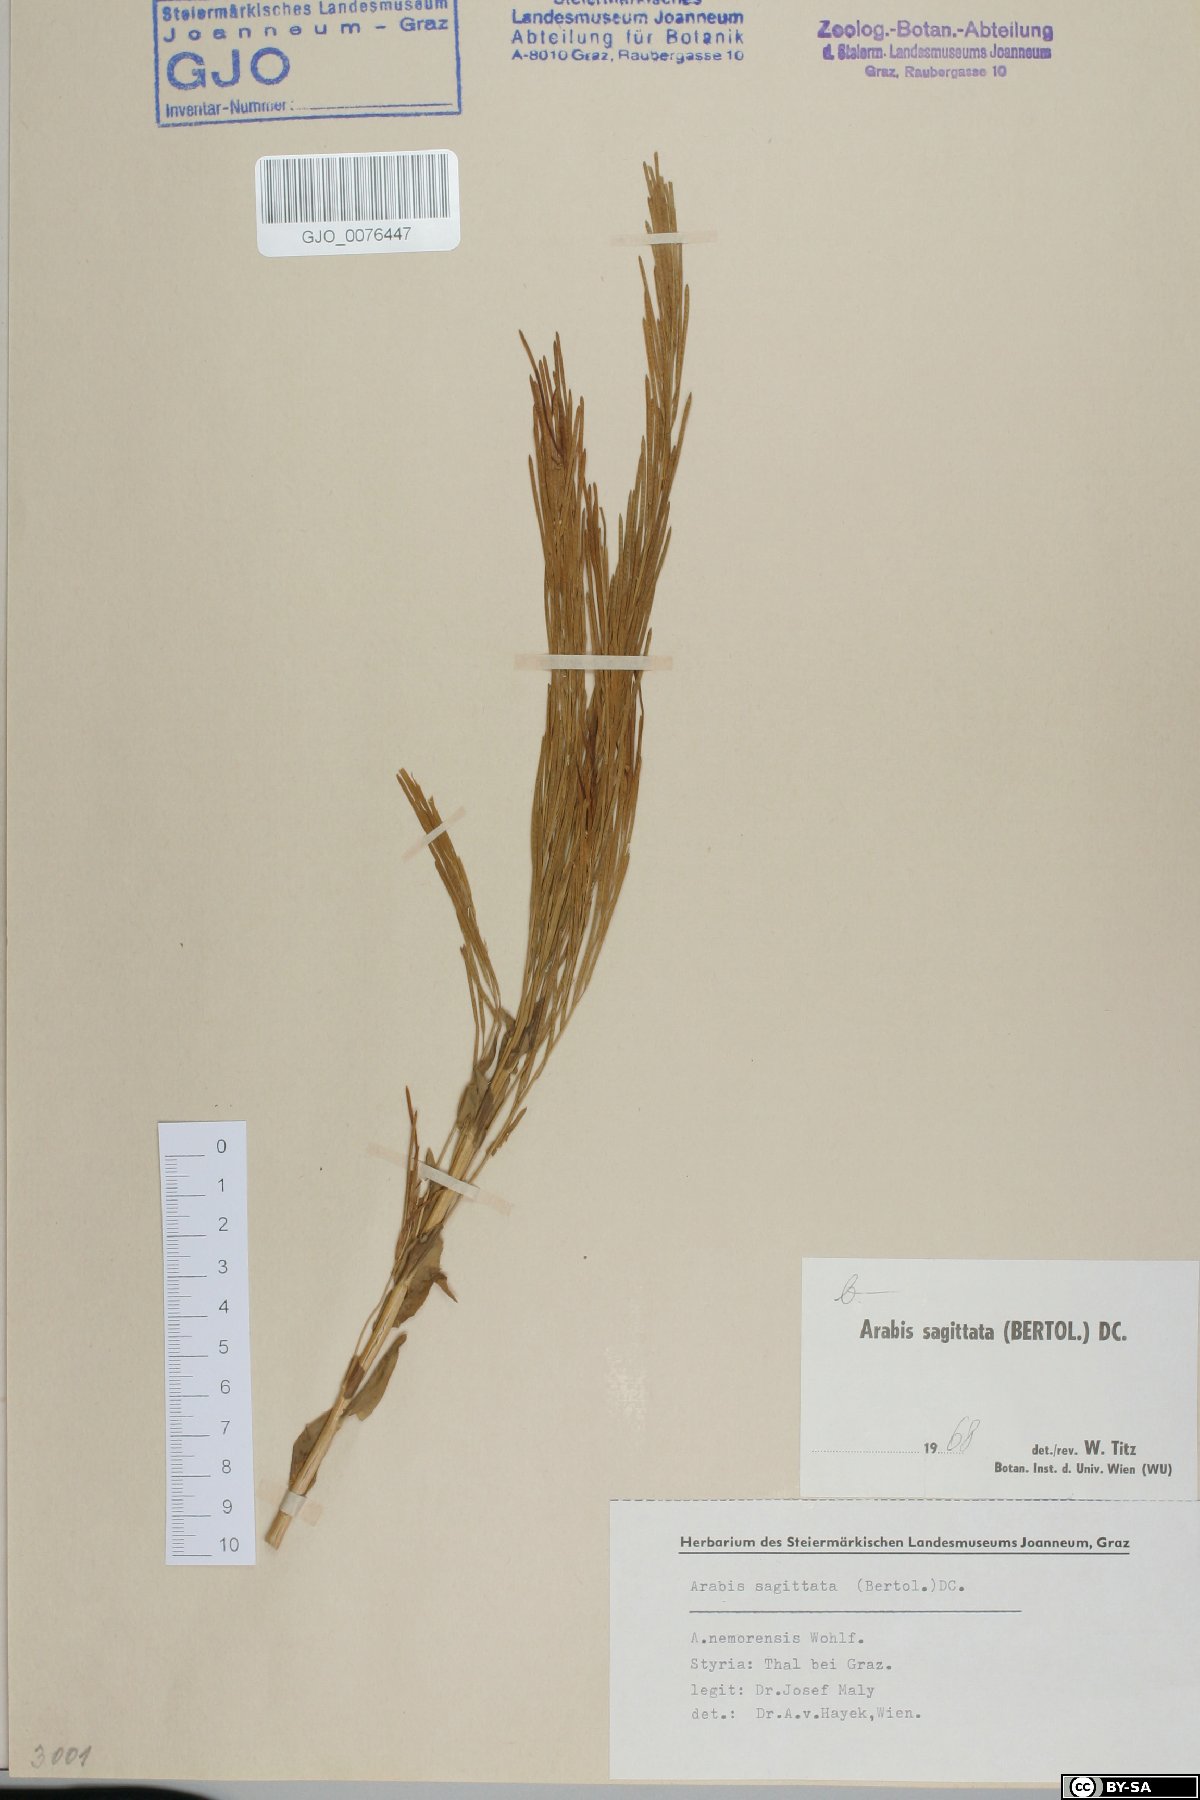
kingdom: Plantae
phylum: Tracheophyta
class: Magnoliopsida
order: Brassicales
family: Brassicaceae
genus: Arabis
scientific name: Arabis sagittata
